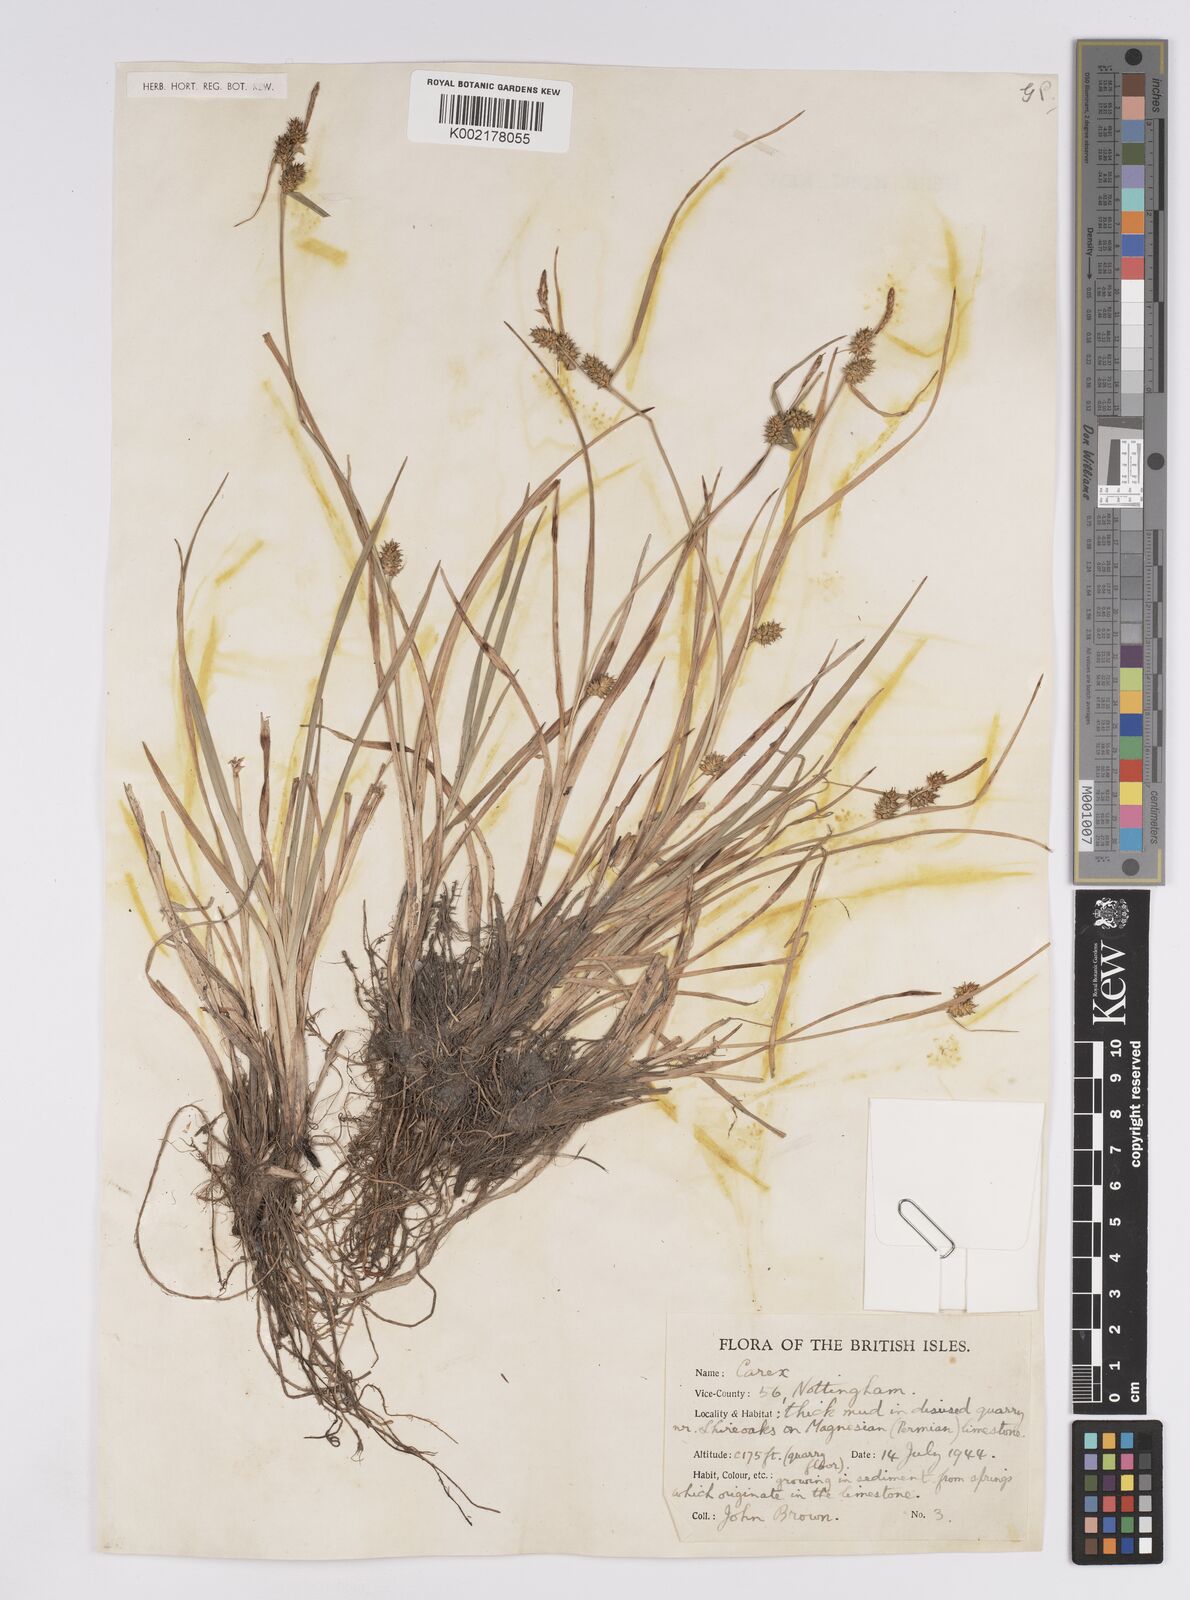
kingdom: Plantae
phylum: Tracheophyta
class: Liliopsida
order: Poales
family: Cyperaceae
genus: Carex
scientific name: Carex demissa
